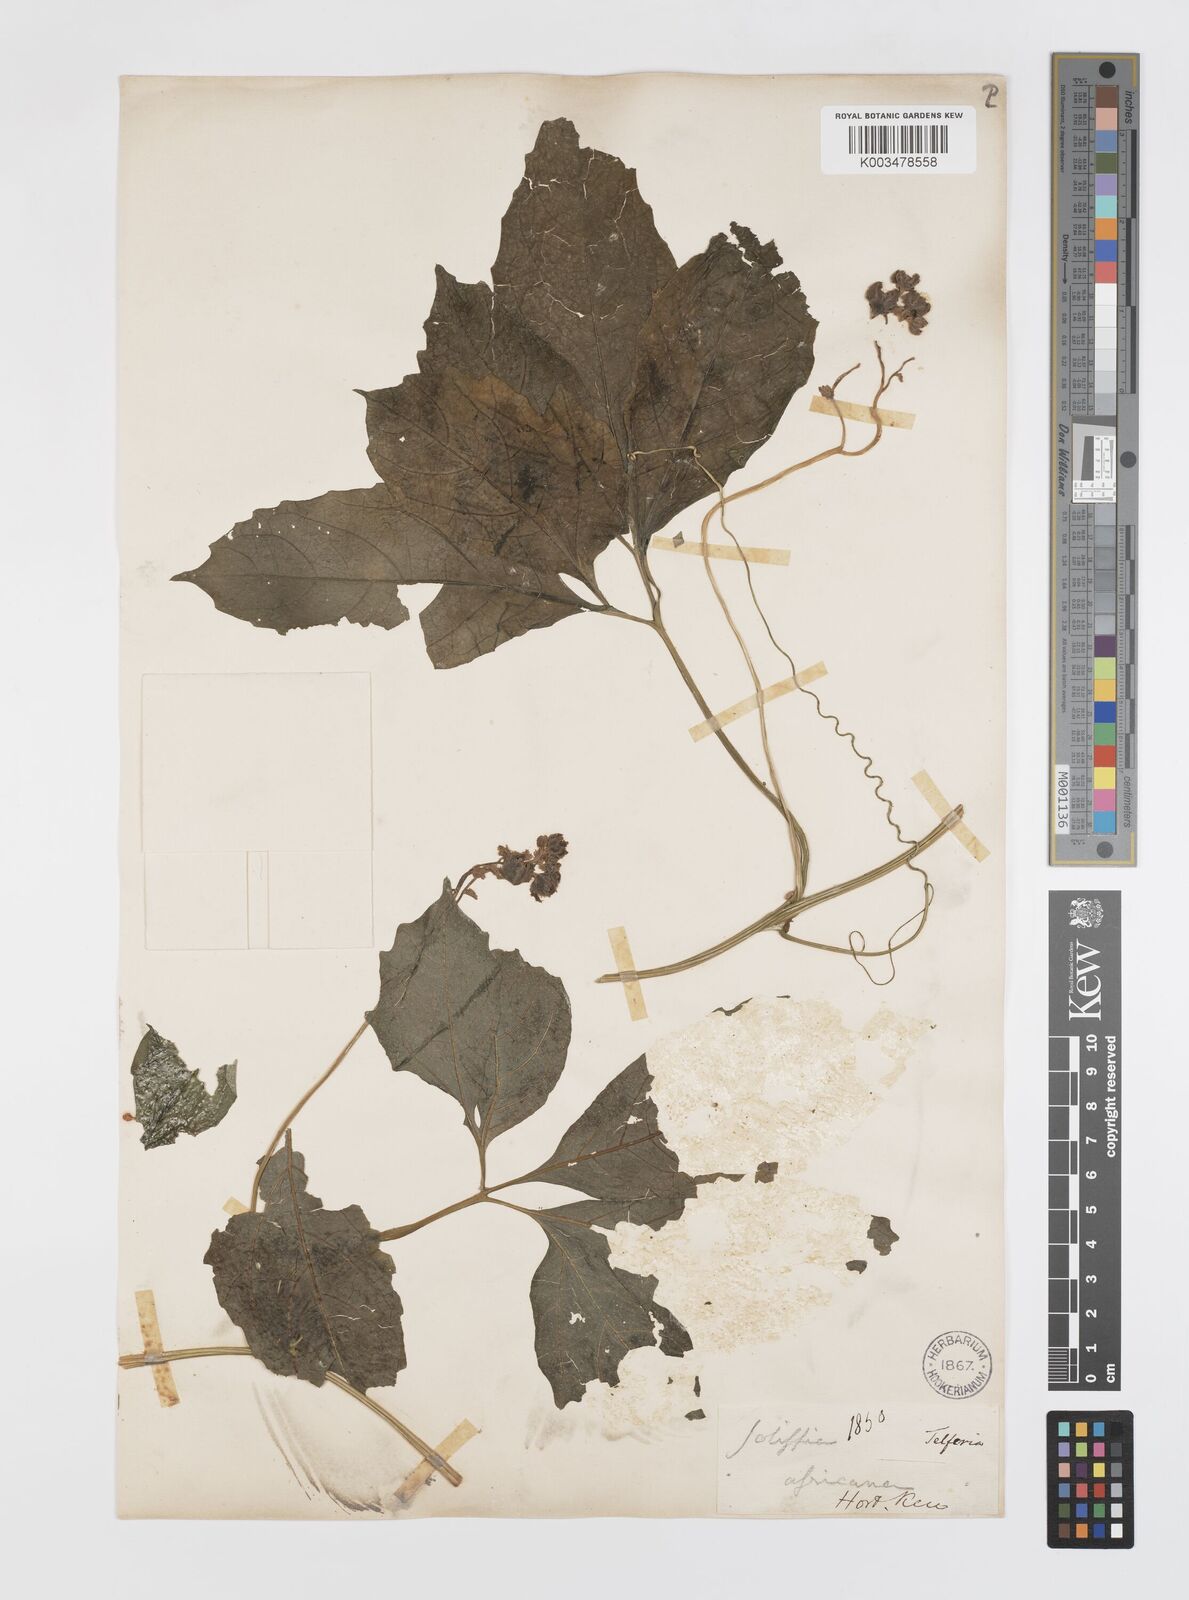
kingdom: Plantae
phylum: Tracheophyta
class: Magnoliopsida
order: Cucurbitales
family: Cucurbitaceae
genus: Telfairia
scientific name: Telfairia pedata
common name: Zanzibar oilvine
